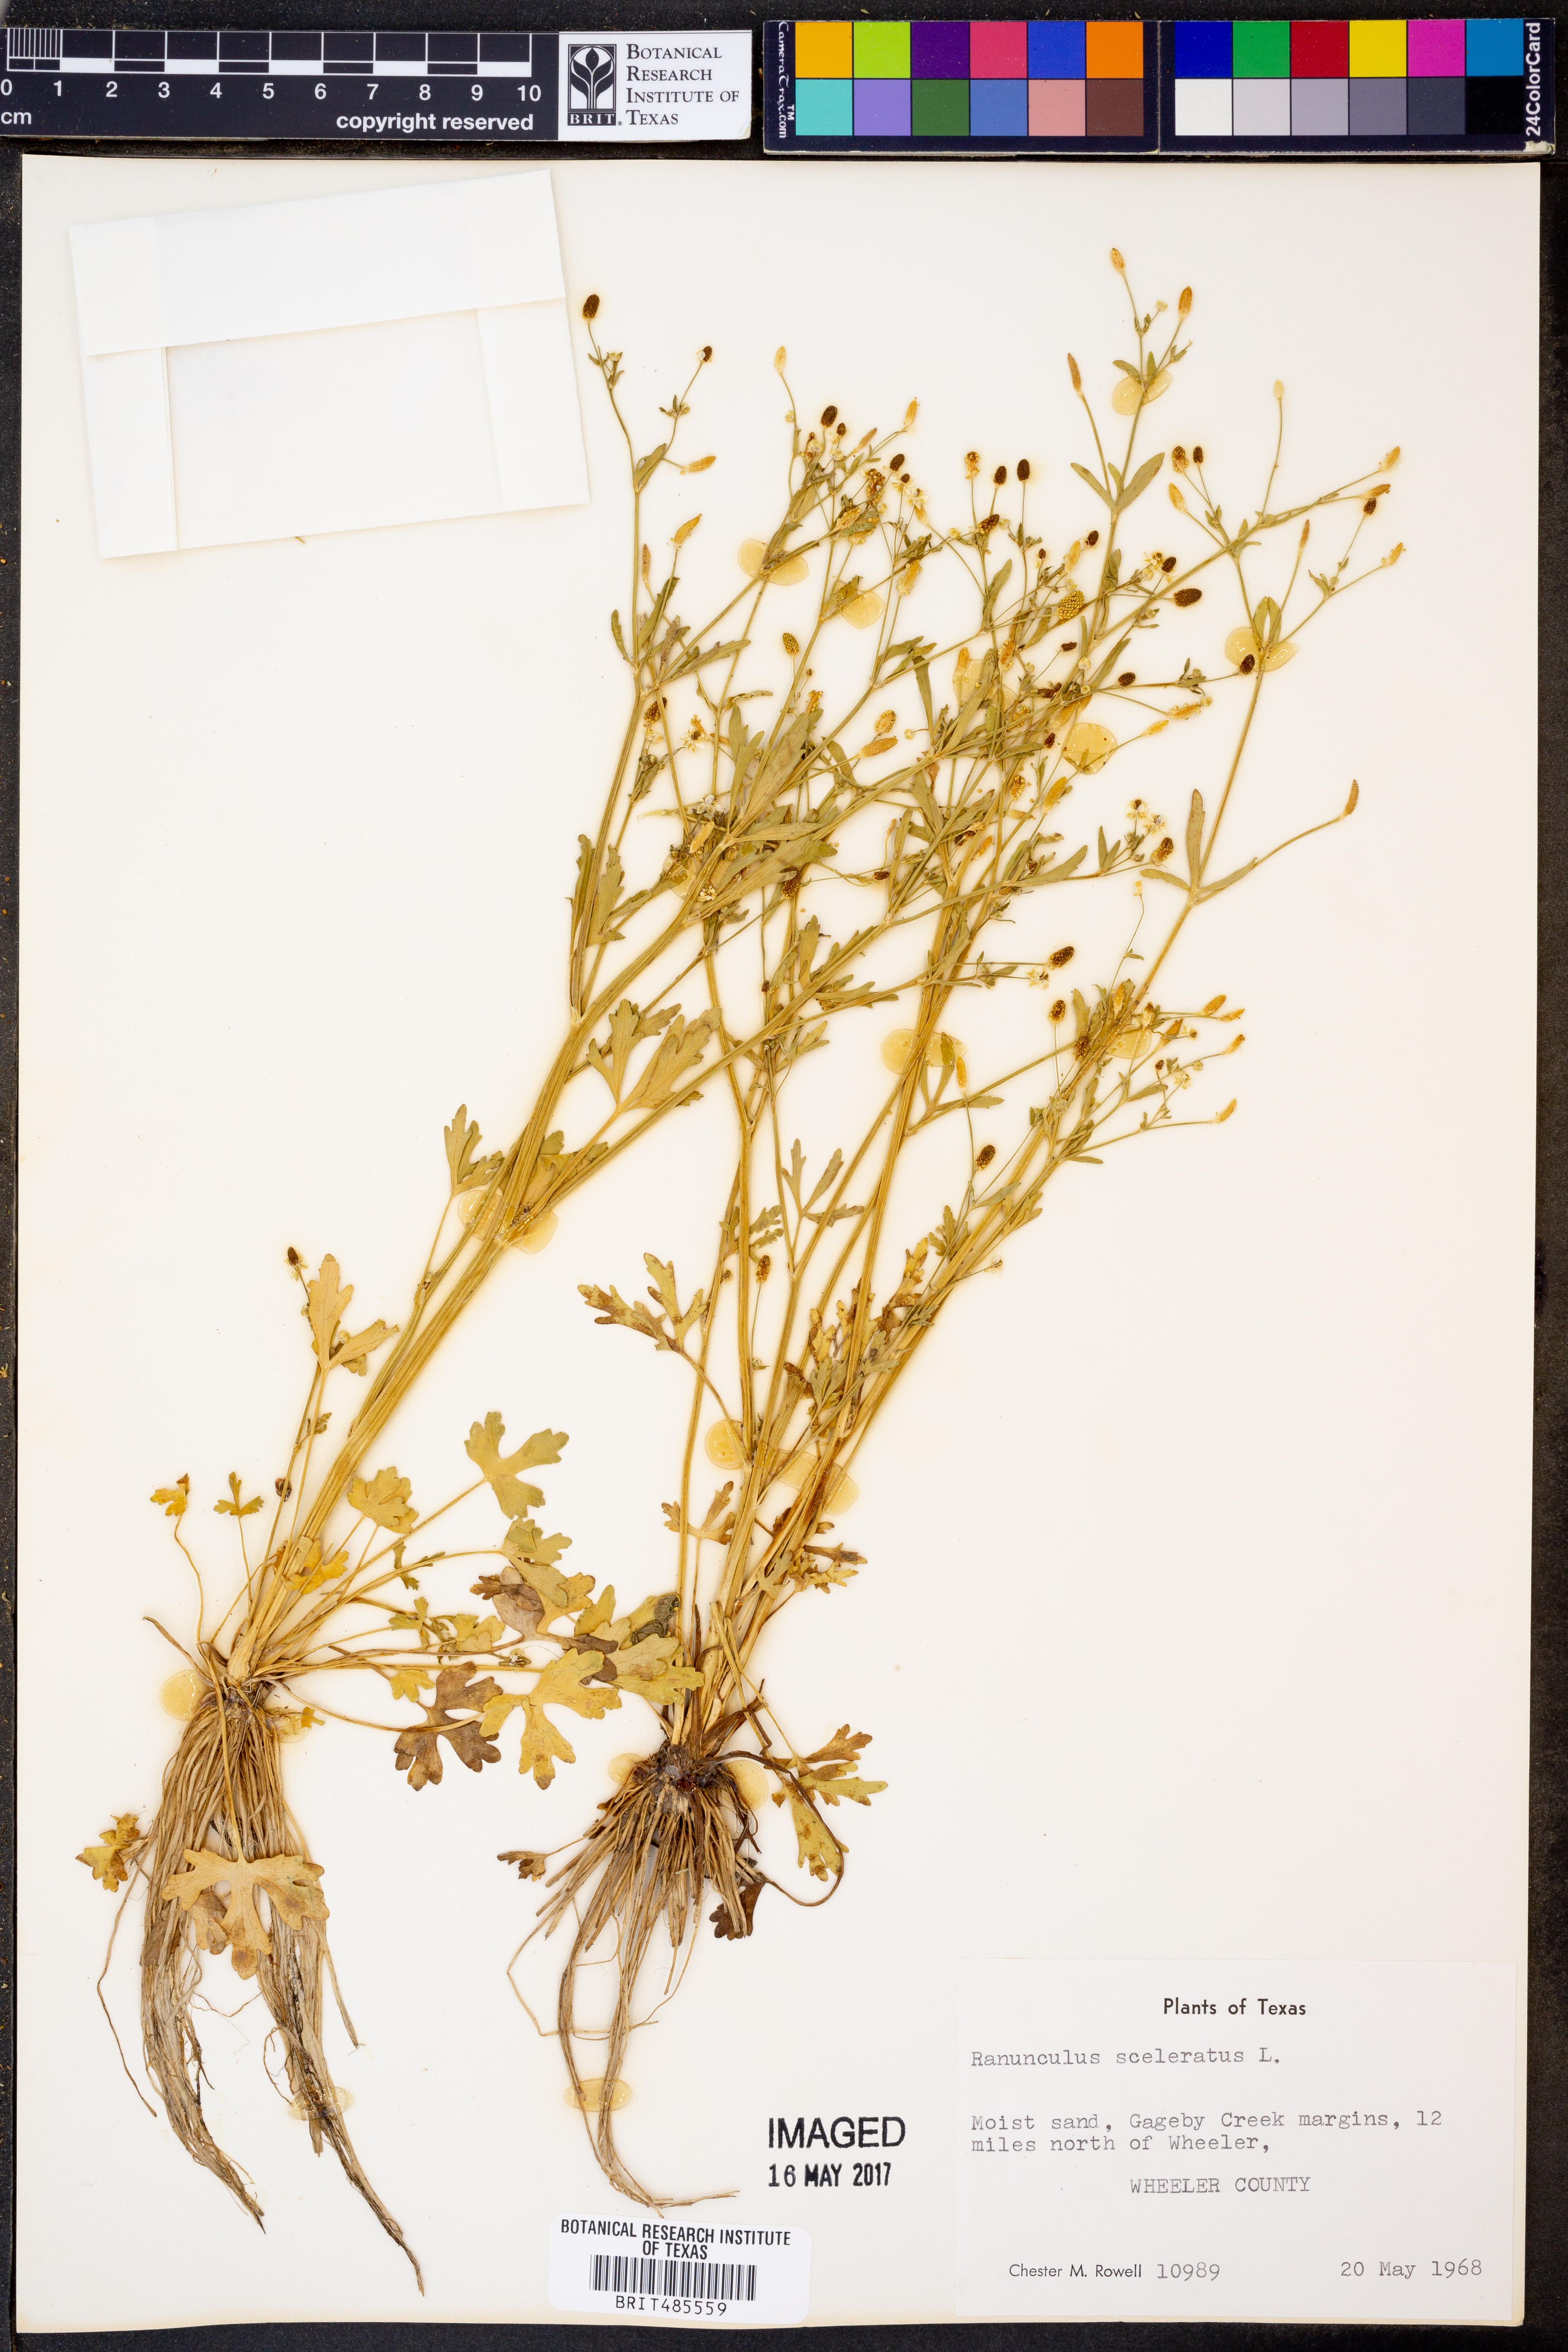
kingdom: Plantae
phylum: Tracheophyta
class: Magnoliopsida
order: Ranunculales
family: Ranunculaceae
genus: Ranunculus
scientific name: Ranunculus sceleratus
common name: Celery-leaved buttercup
